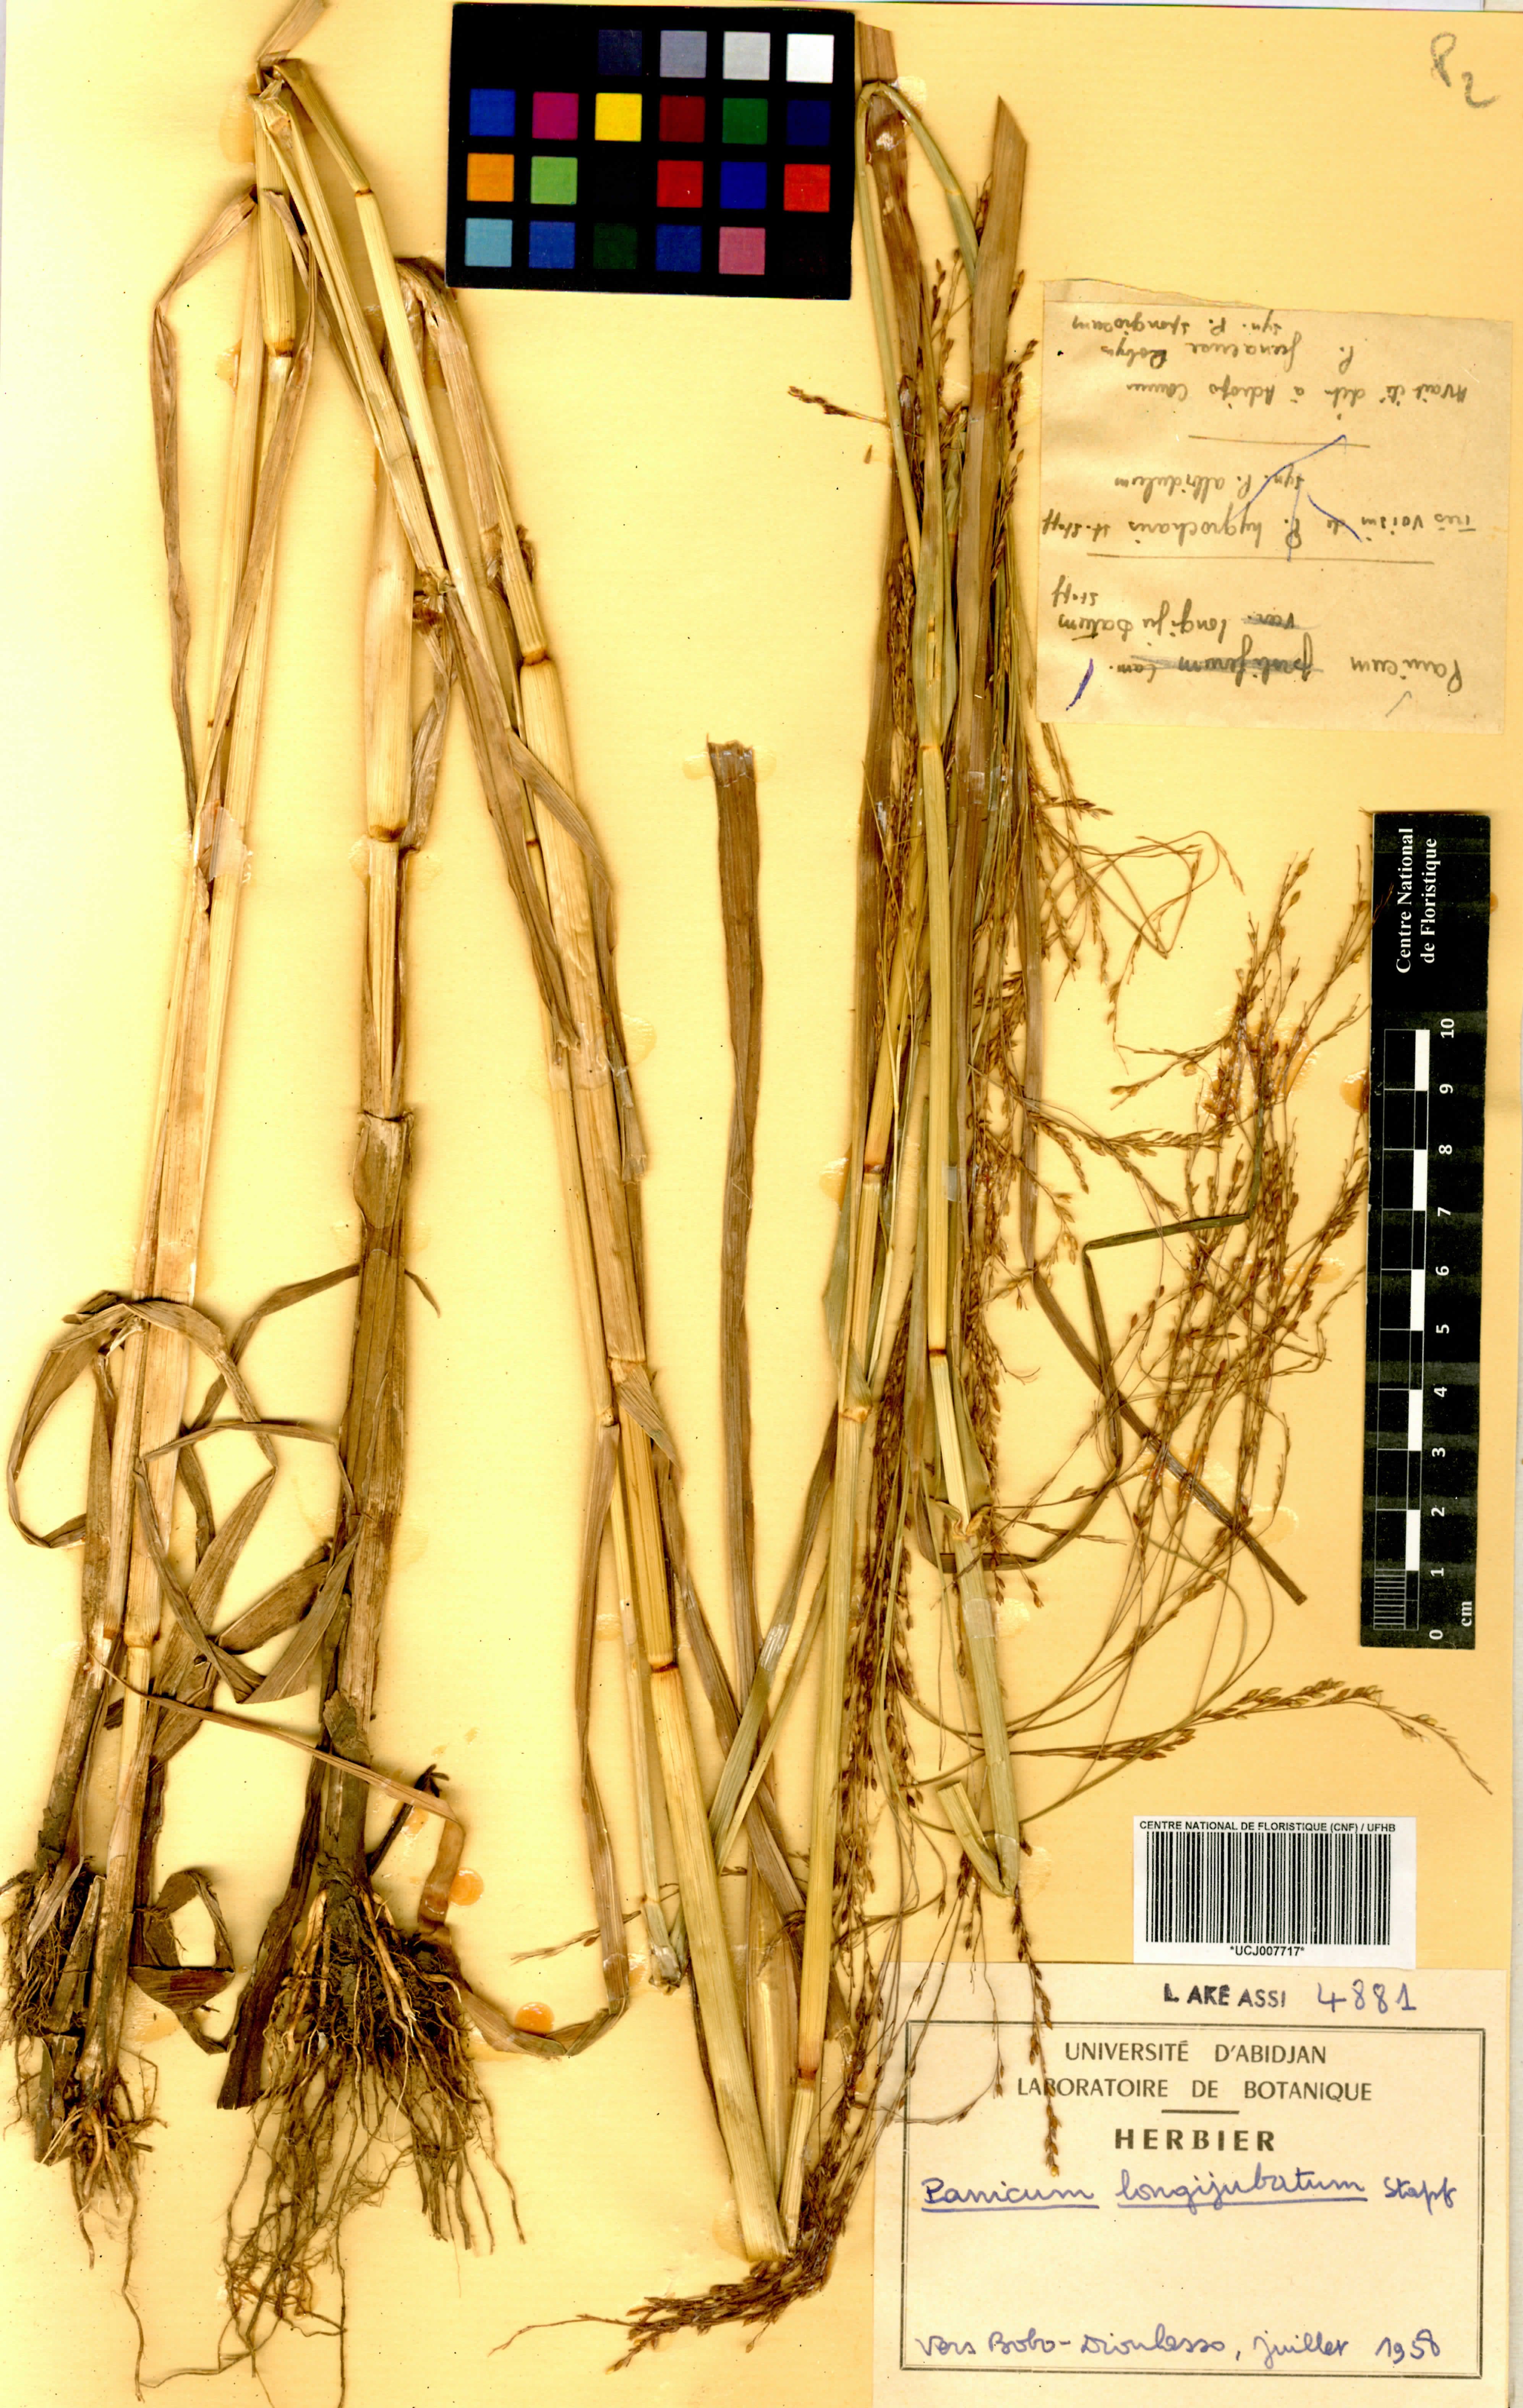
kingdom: Plantae
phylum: Tracheophyta
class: Liliopsida
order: Poales
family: Poaceae
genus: Panicum
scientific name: Panicum subalbidum
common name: Elbow buffalo grass
